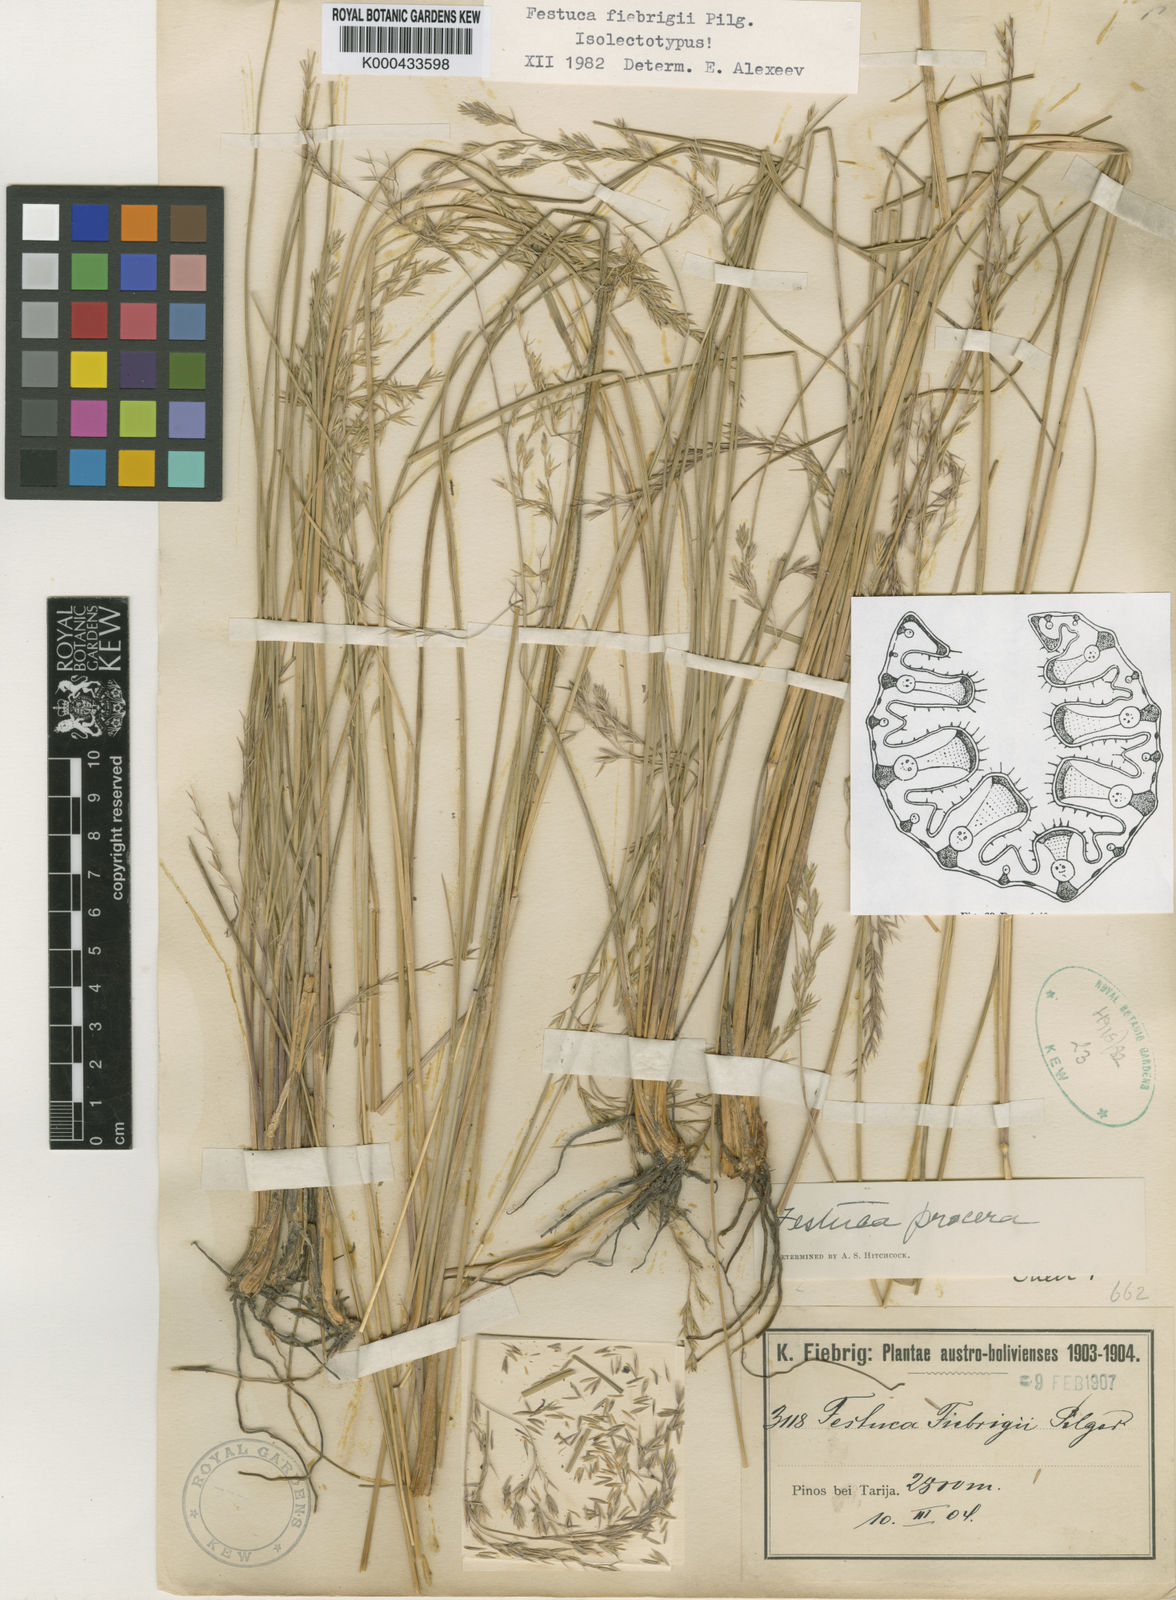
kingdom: Plantae
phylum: Tracheophyta
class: Liliopsida
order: Poales
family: Poaceae
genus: Festuca
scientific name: Festuca fiebrigii
